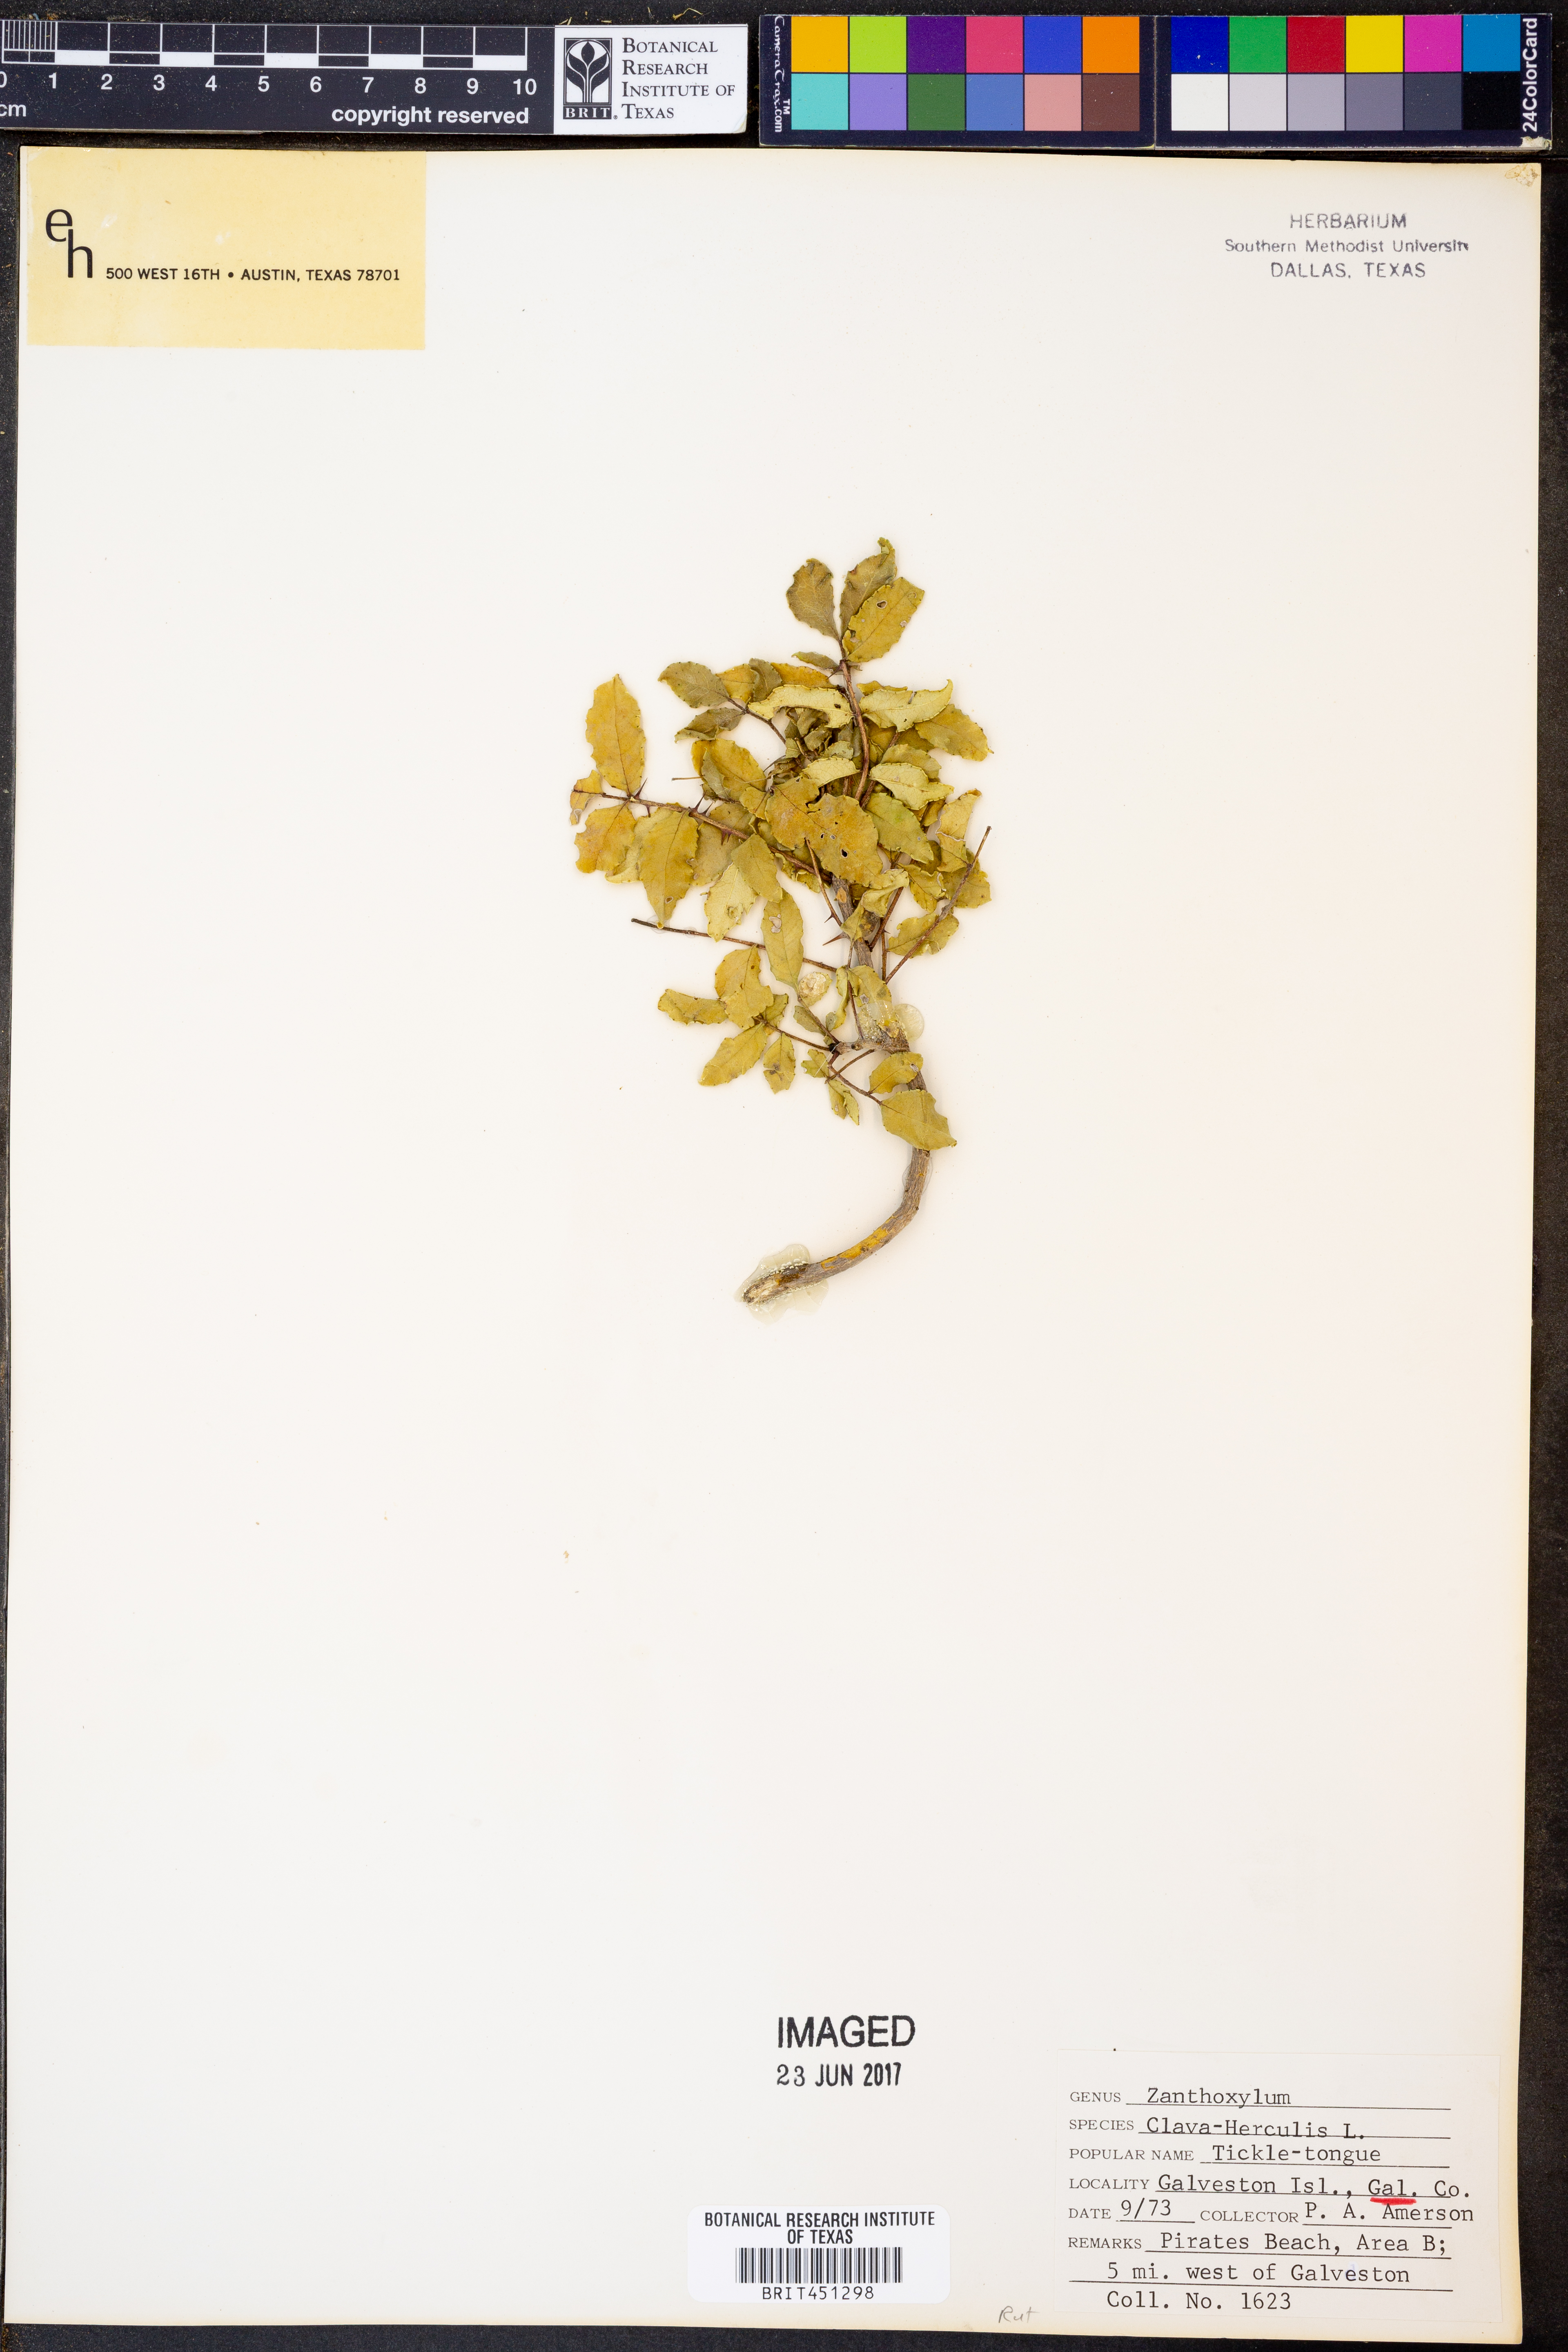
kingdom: Plantae
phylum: Tracheophyta
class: Magnoliopsida
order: Sapindales
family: Rutaceae
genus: Zanthoxylum
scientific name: Zanthoxylum avicennae
